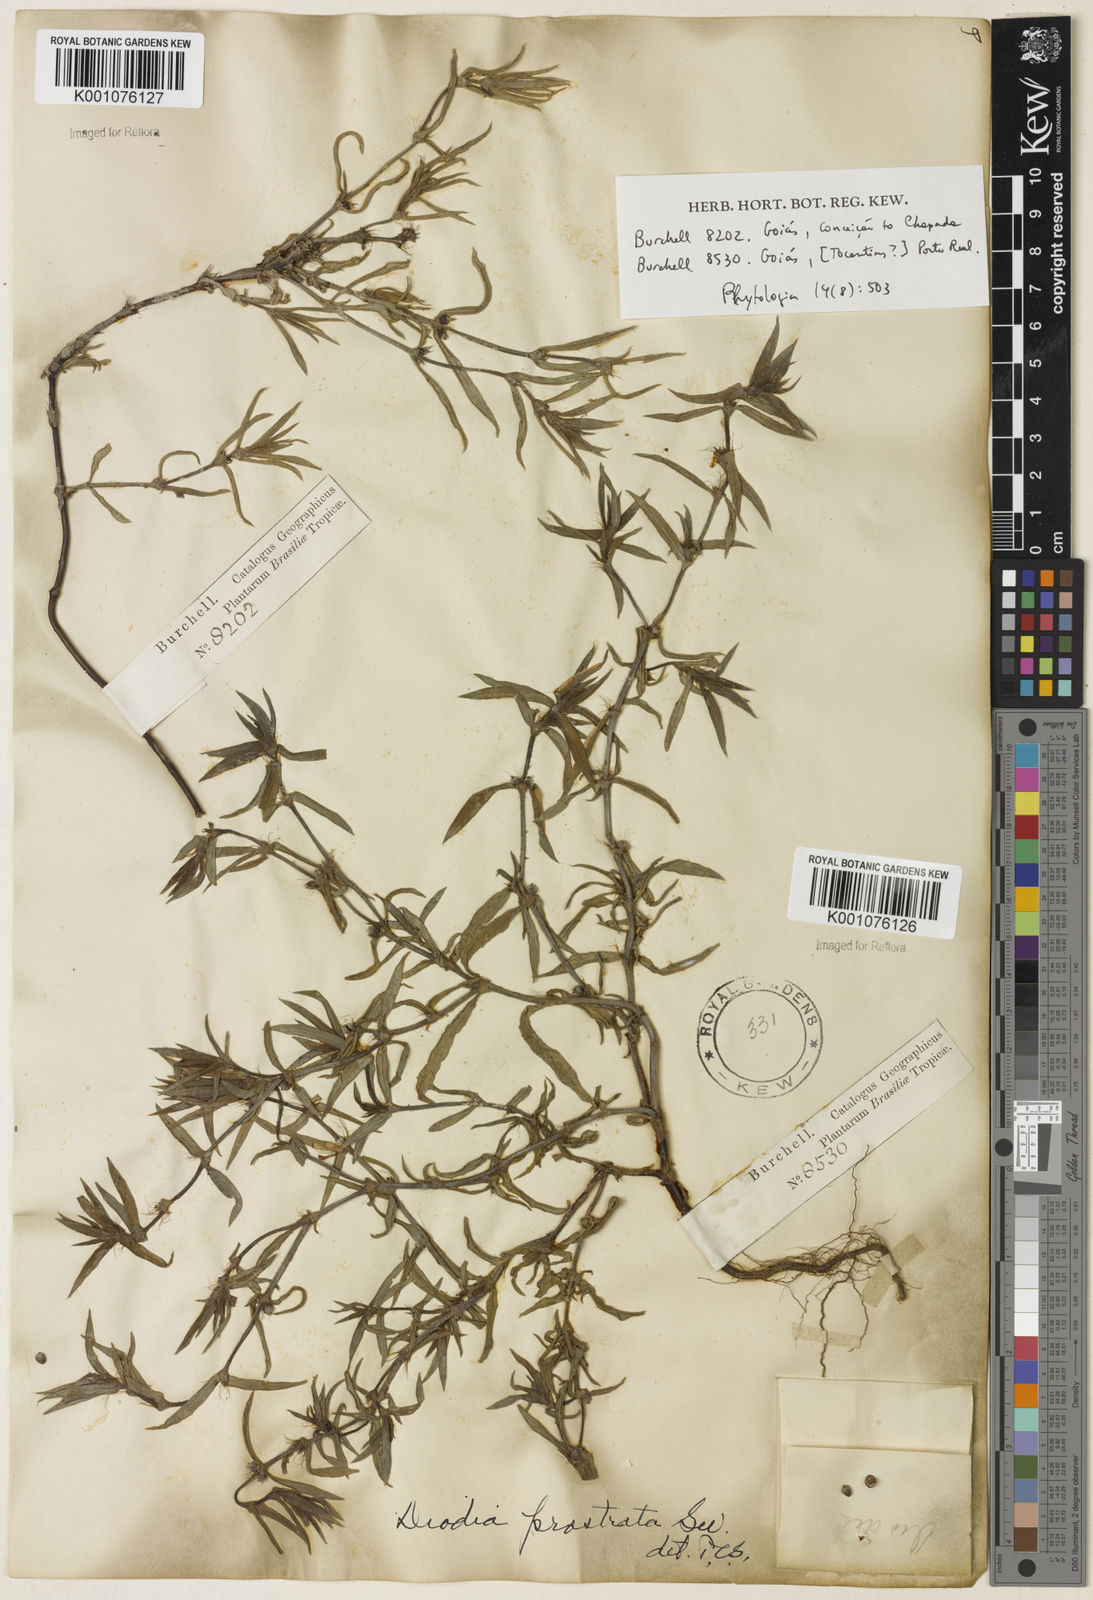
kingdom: Plantae
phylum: Tracheophyta
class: Magnoliopsida
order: Gentianales
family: Rubiaceae
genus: Hexasepalum
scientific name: Hexasepalum teres
